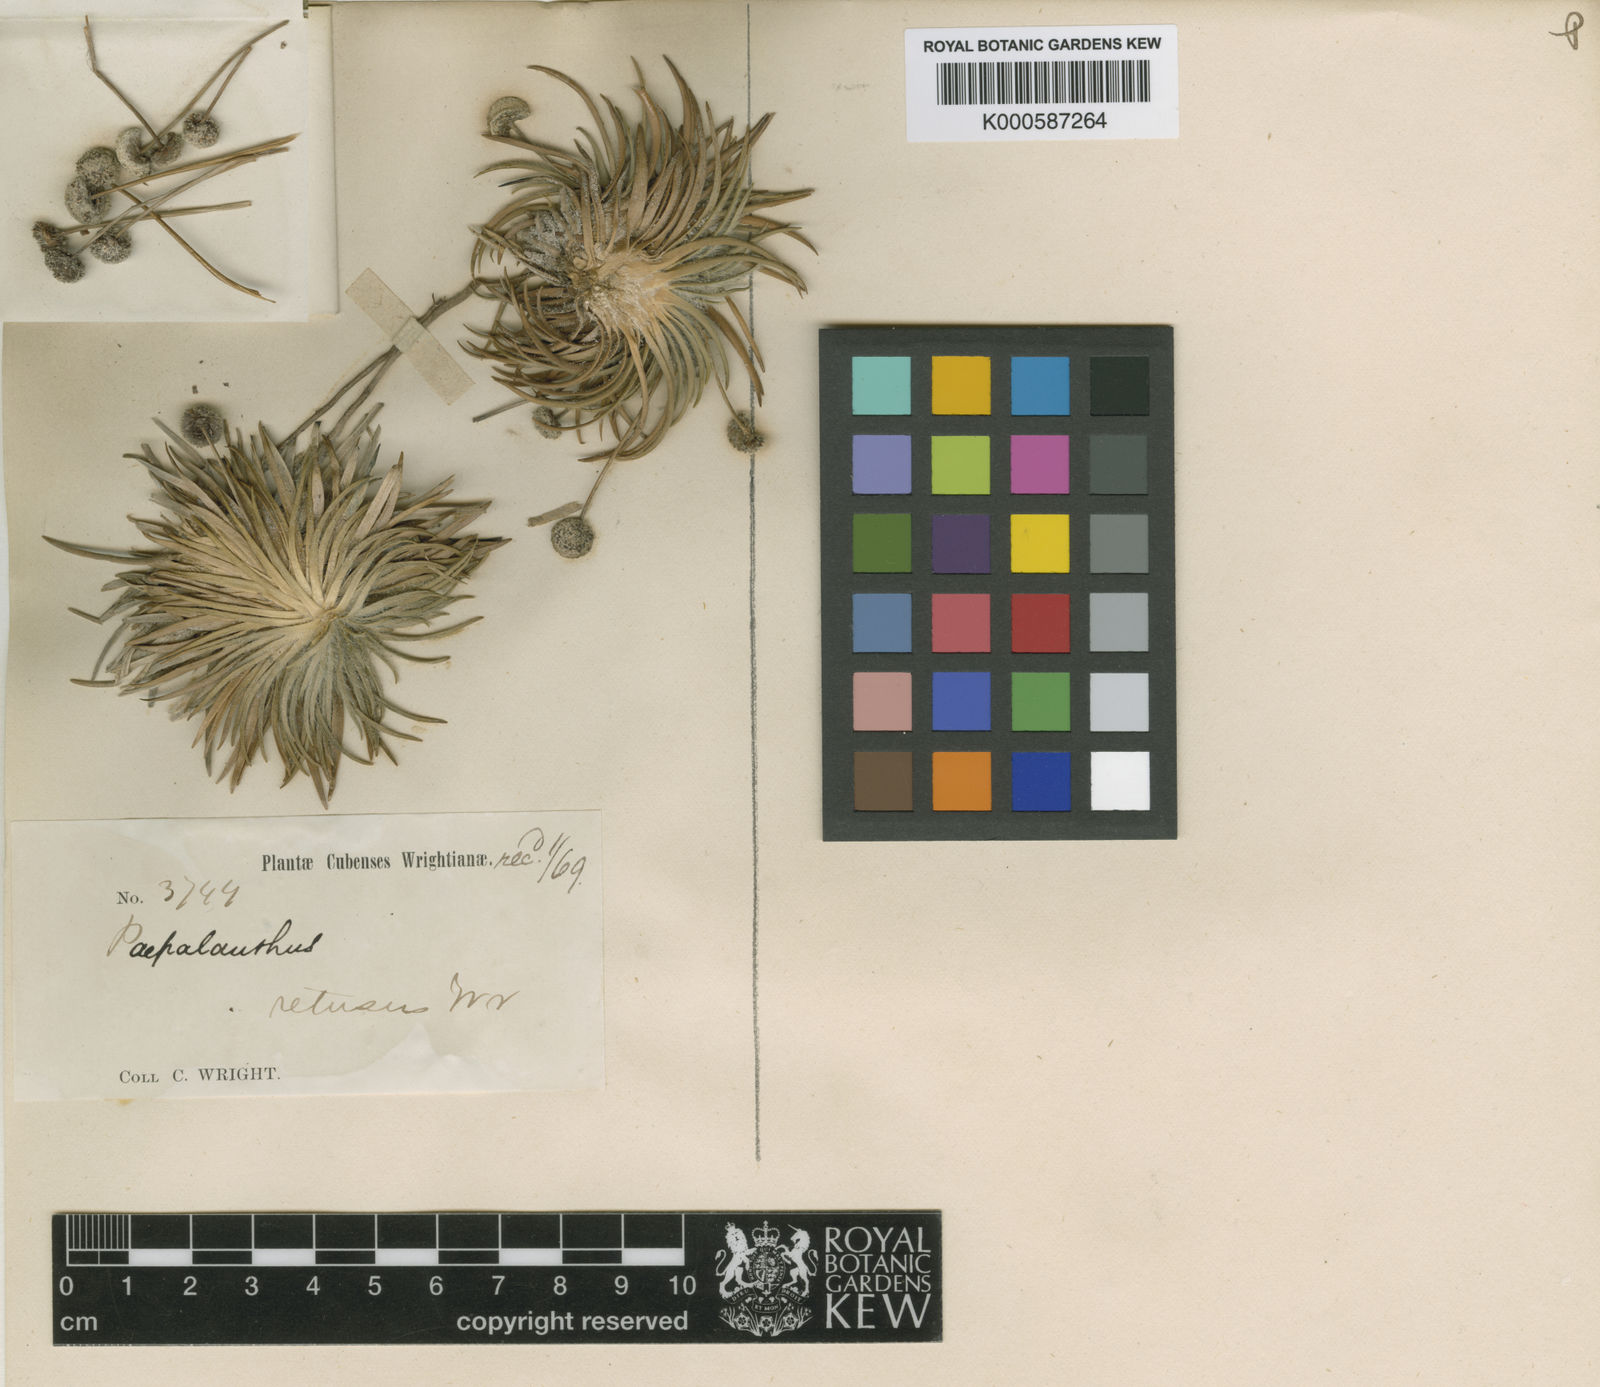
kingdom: Plantae
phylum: Tracheophyta
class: Liliopsida
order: Poales
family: Eriocaulaceae
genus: Paepalanthus
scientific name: Paepalanthus retusus
